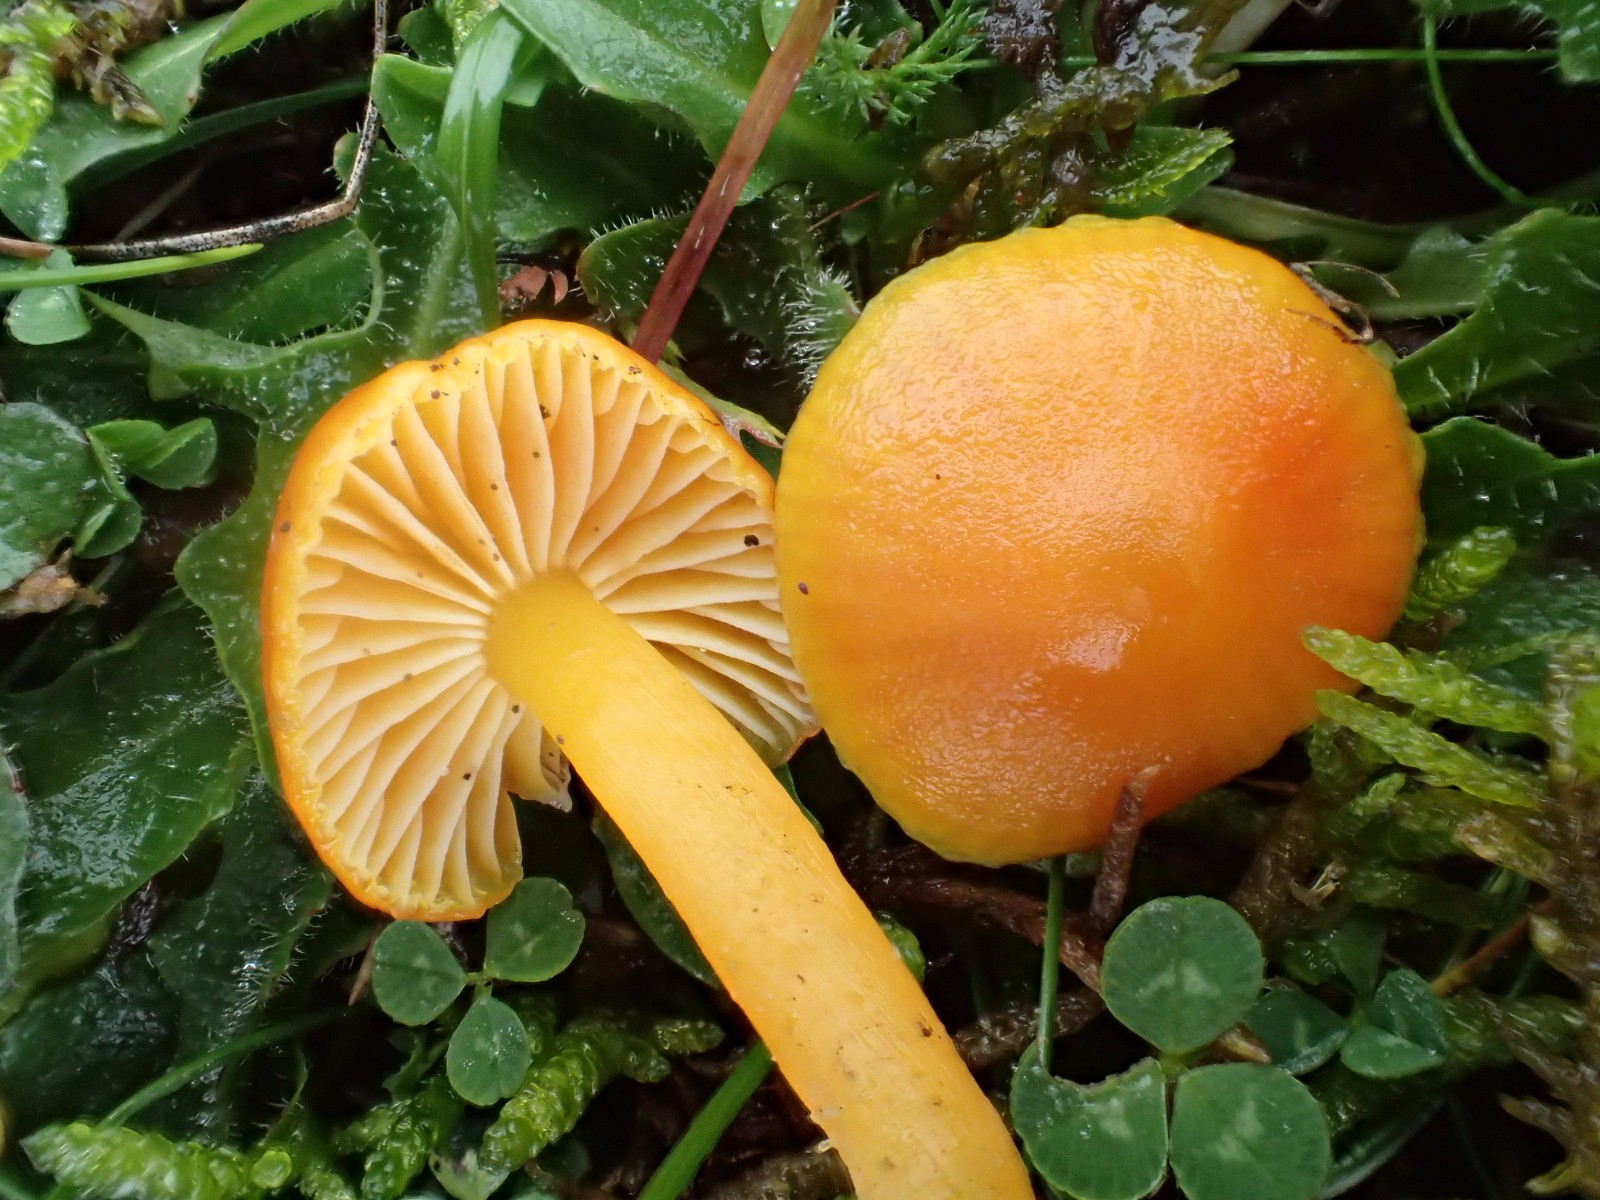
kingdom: Fungi
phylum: Basidiomycota
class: Agaricomycetes
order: Agaricales
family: Hygrophoraceae
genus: Hygrocybe
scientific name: Hygrocybe ceracea
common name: voksgul vokshat
